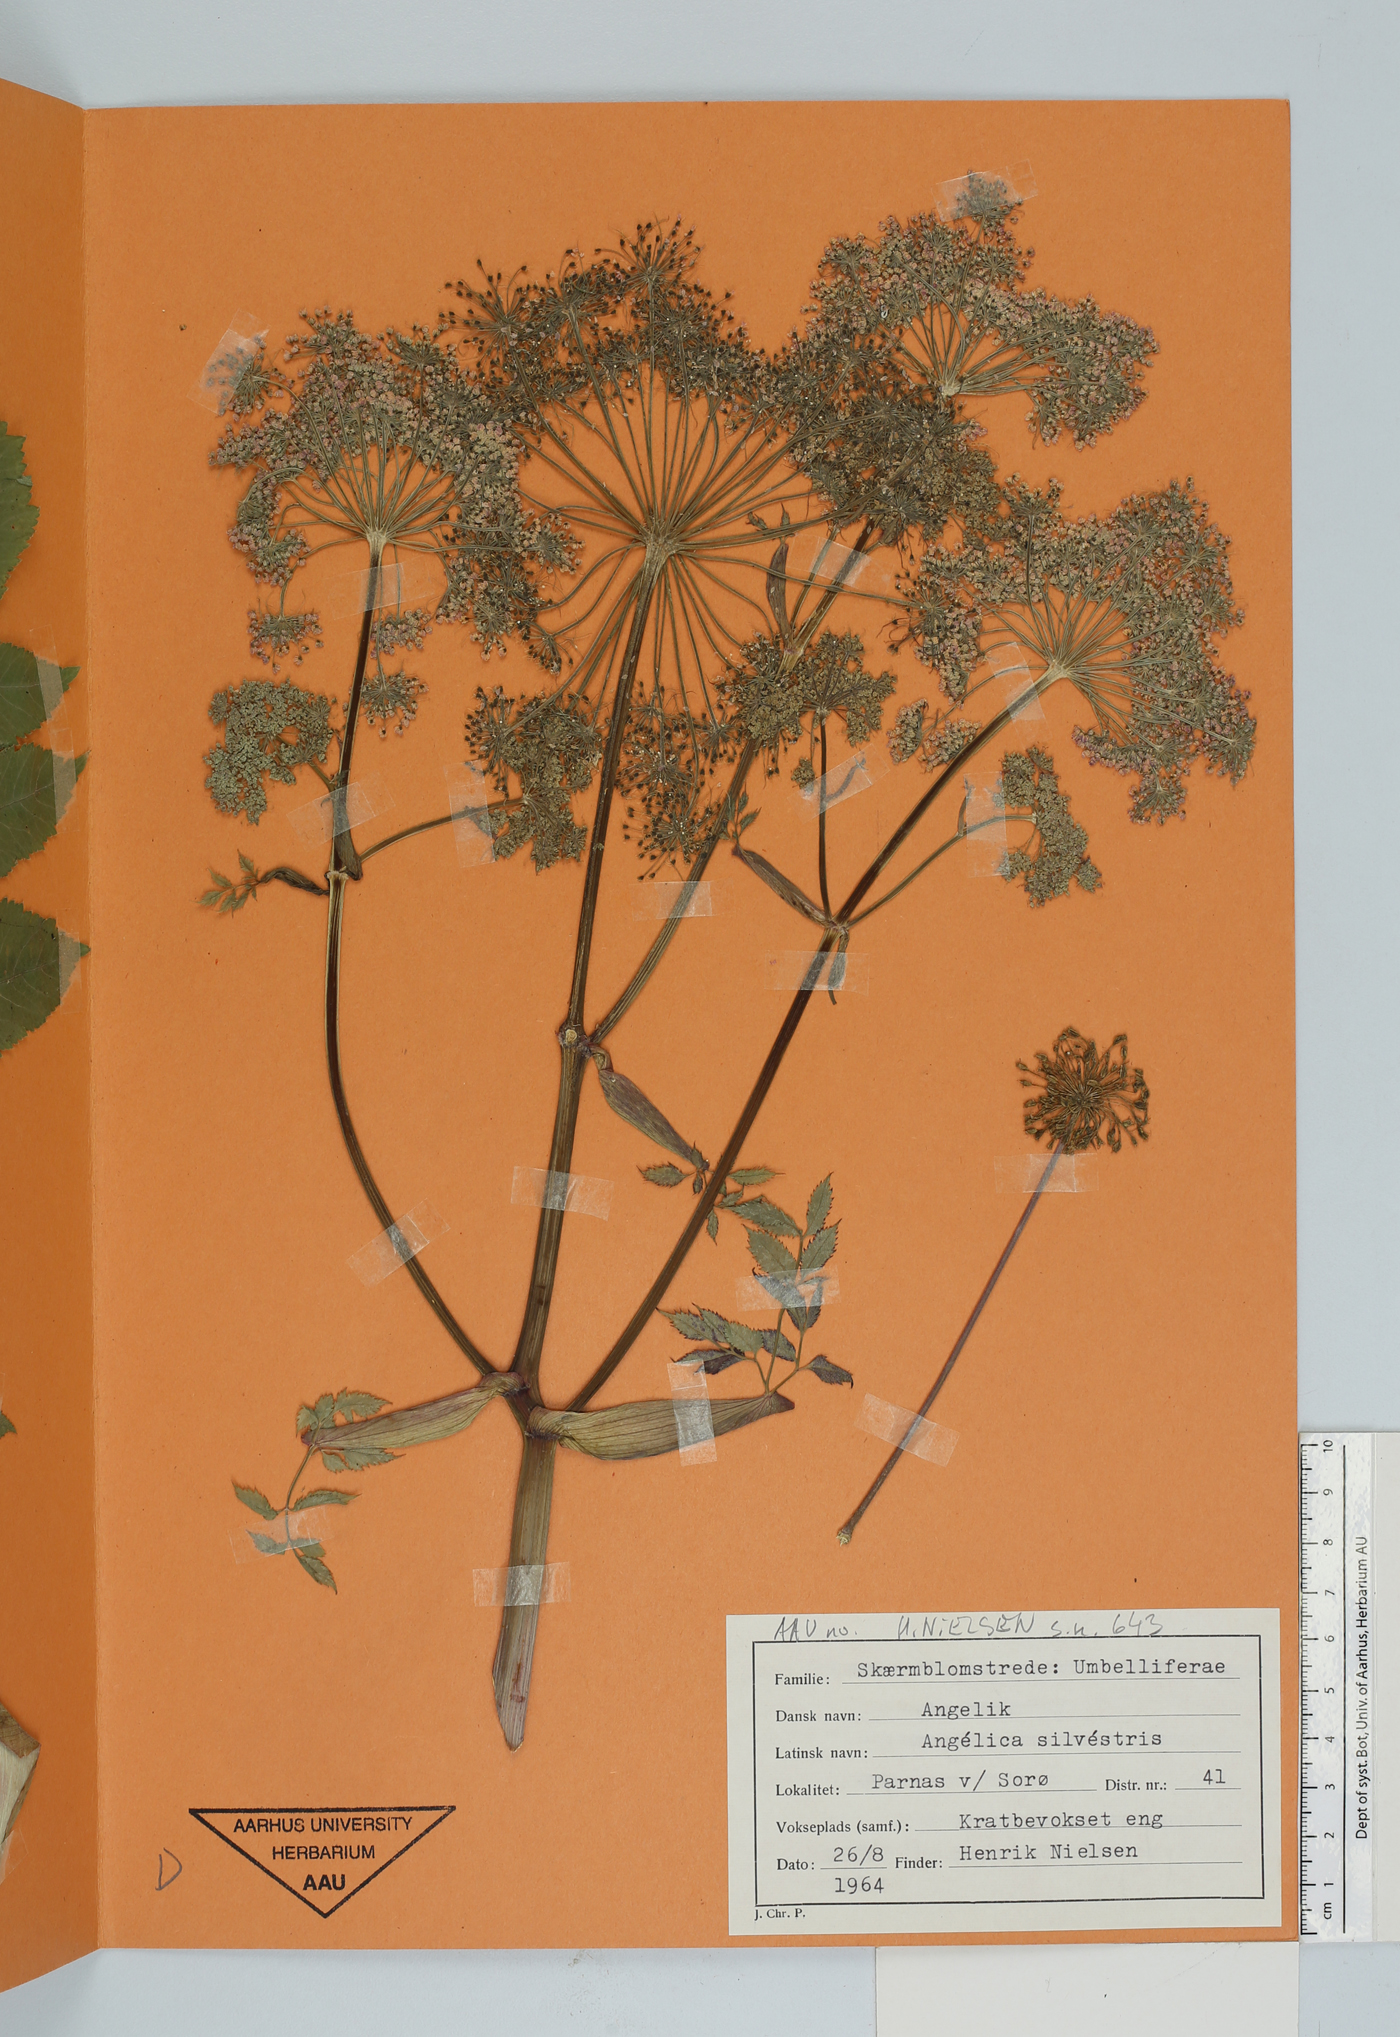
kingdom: Plantae
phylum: Tracheophyta
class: Magnoliopsida
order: Apiales
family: Apiaceae
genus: Angelica
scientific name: Angelica sylvestris
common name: Wild angelica
